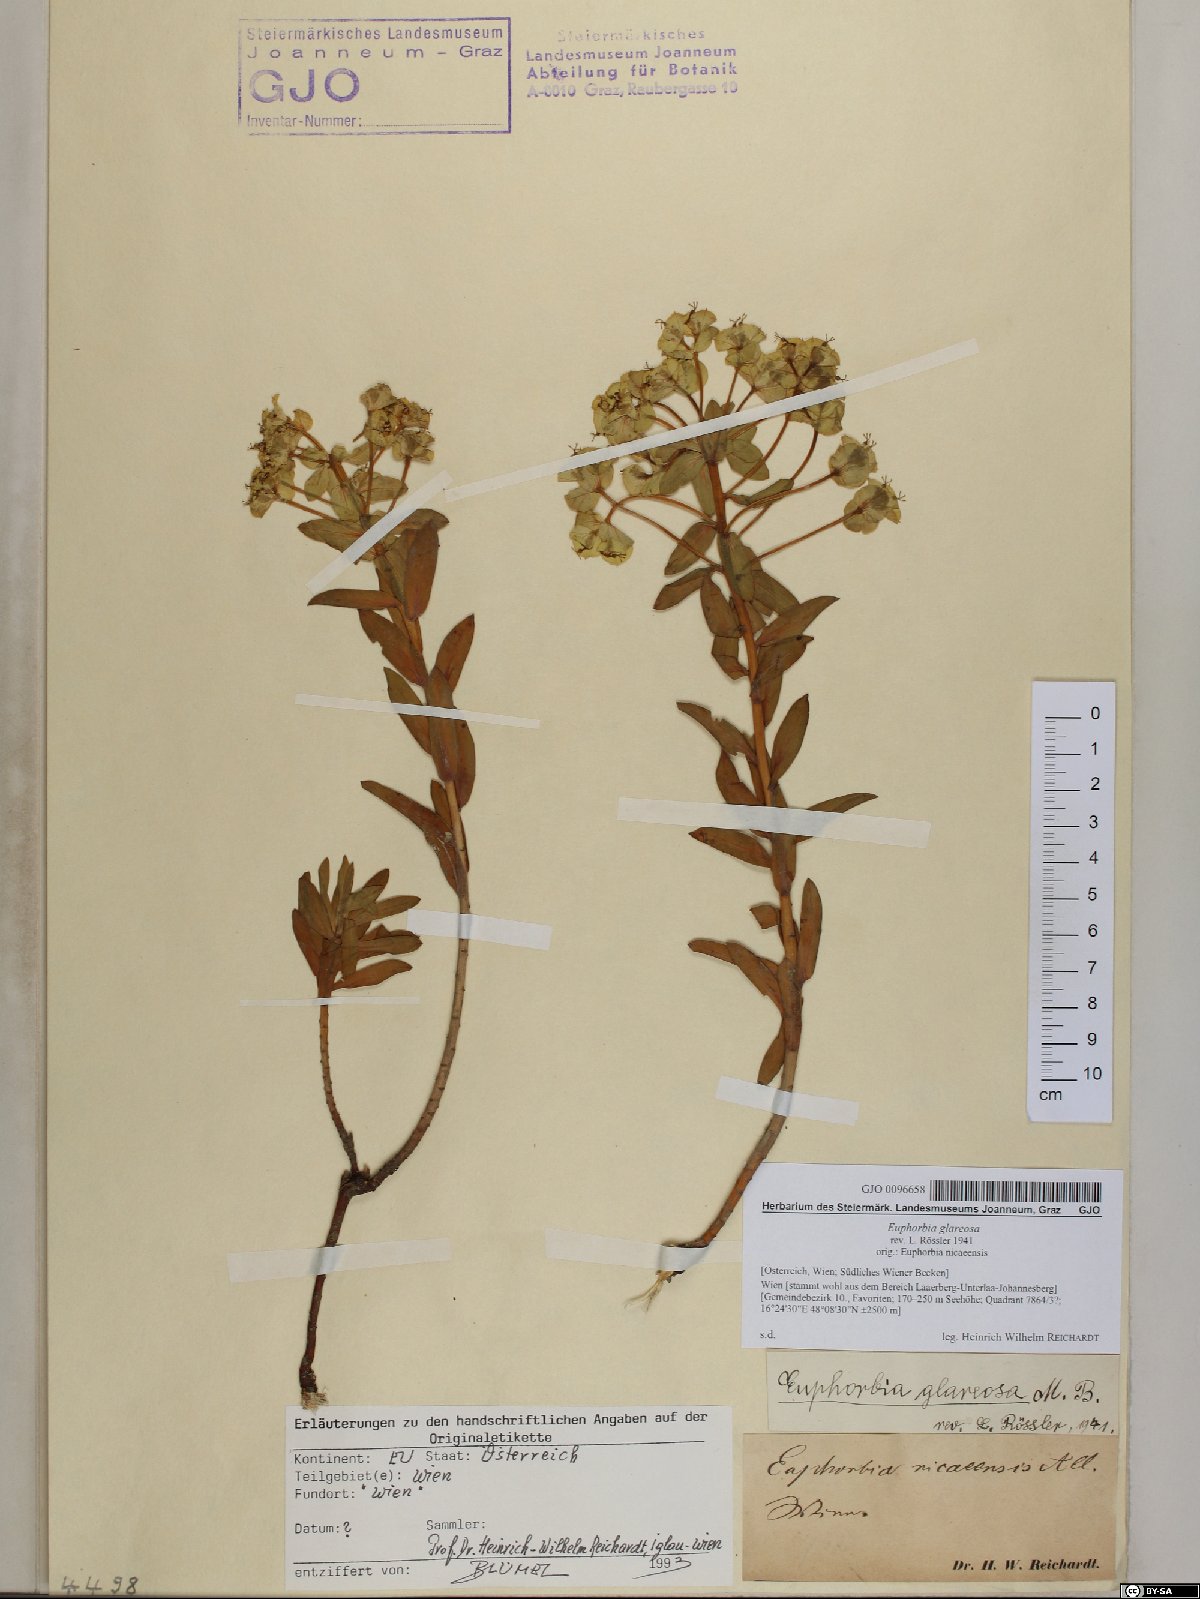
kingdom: Plantae
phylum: Tracheophyta
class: Magnoliopsida
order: Malpighiales
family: Euphorbiaceae
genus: Euphorbia
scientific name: Euphorbia glareosa
